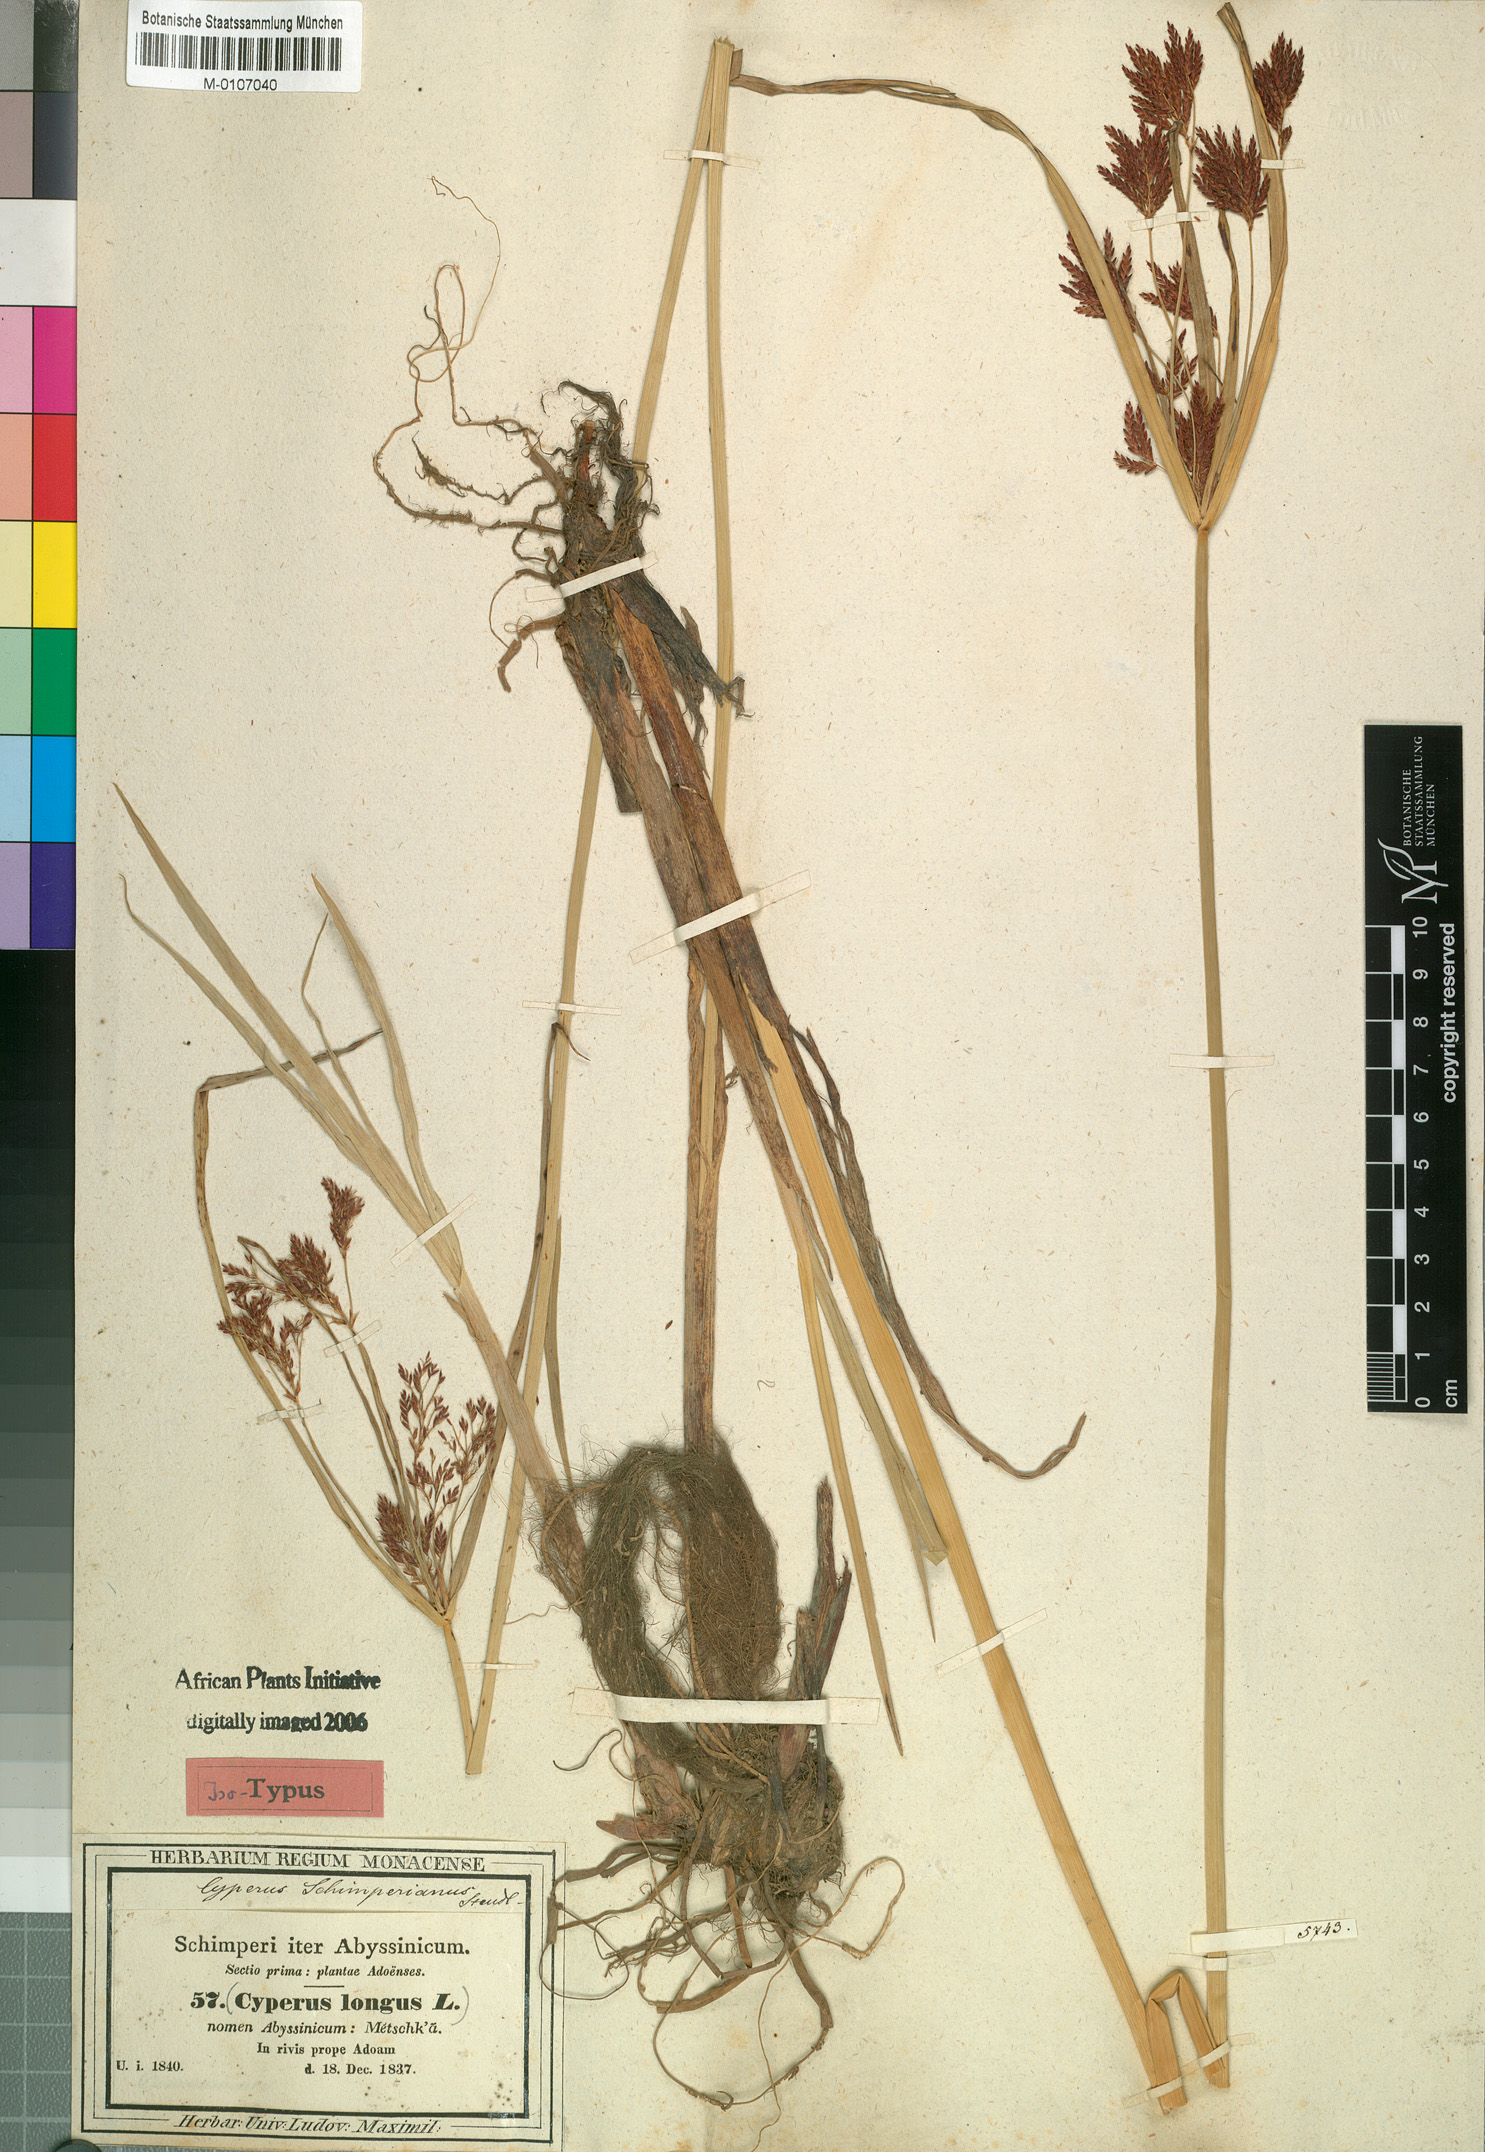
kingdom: Plantae
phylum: Tracheophyta
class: Liliopsida
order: Poales
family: Cyperaceae
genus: Cyperus
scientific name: Cyperus schimperianus
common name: Schimper flatsedge
